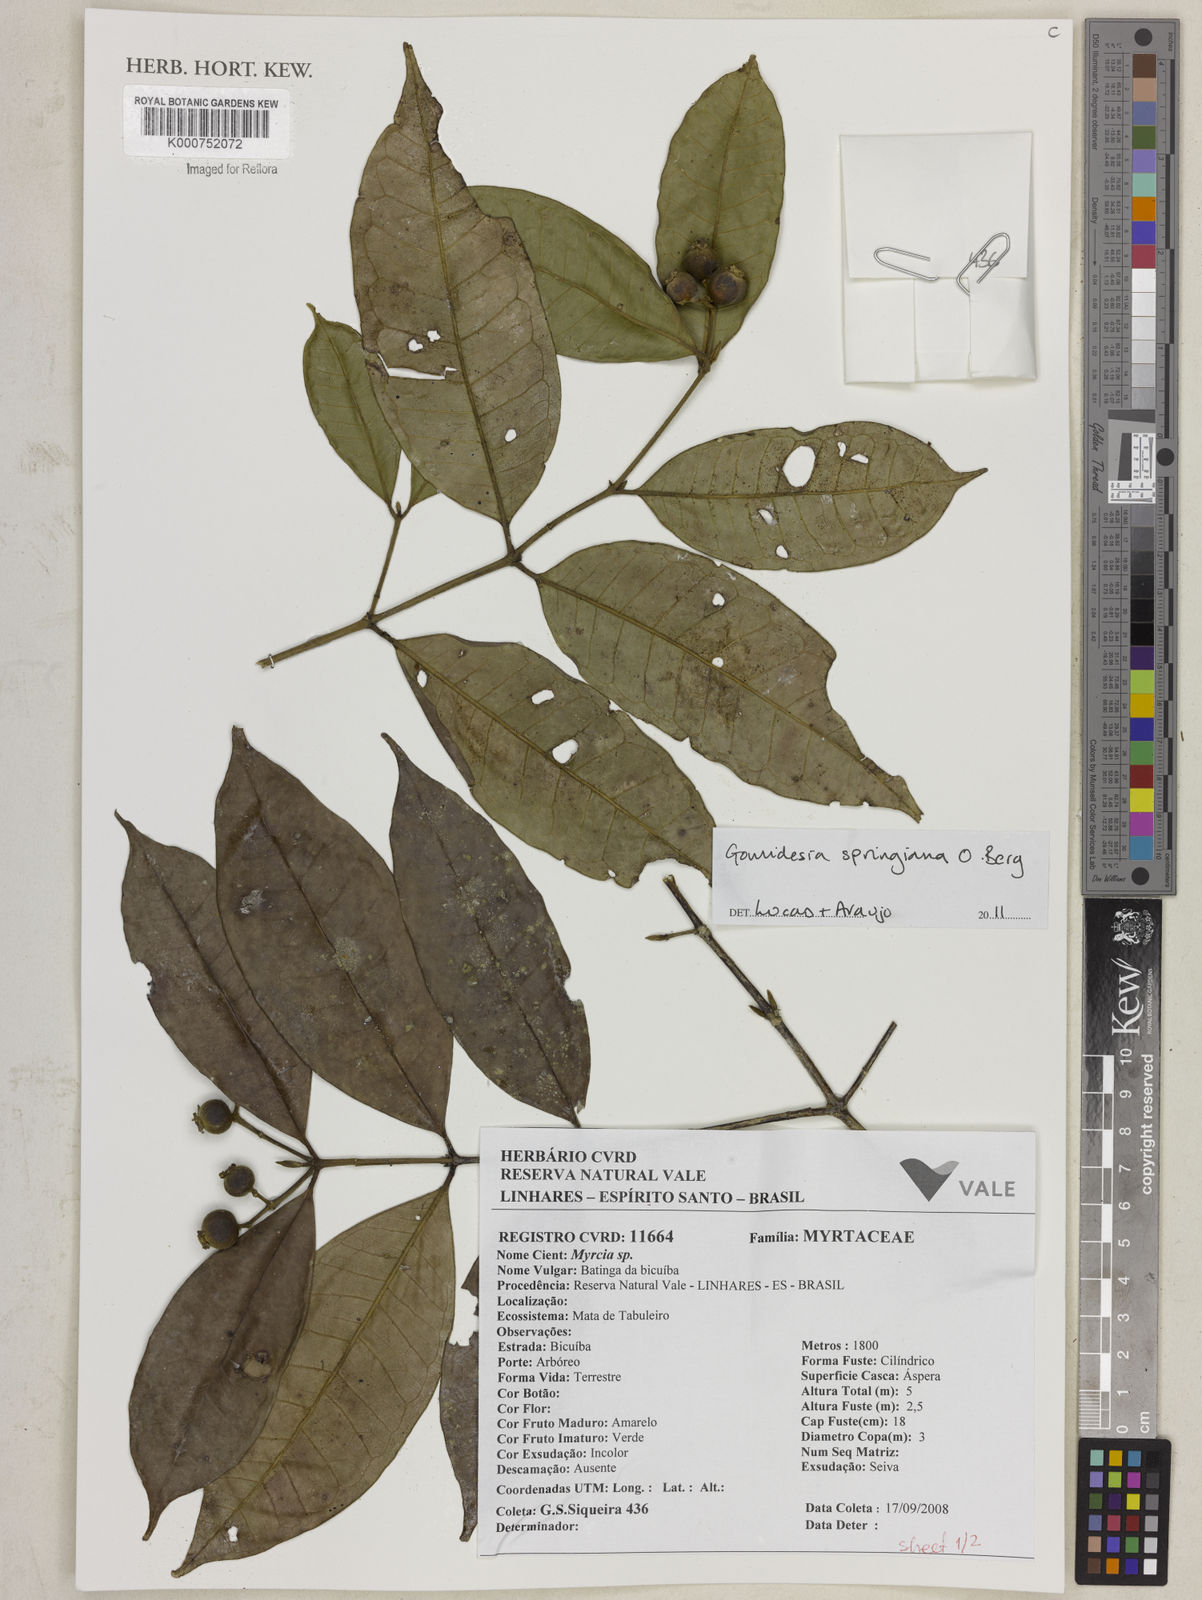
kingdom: Plantae
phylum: Tracheophyta
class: Magnoliopsida
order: Myrtales
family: Myrtaceae
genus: Myrcia
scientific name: Myrcia springiana
